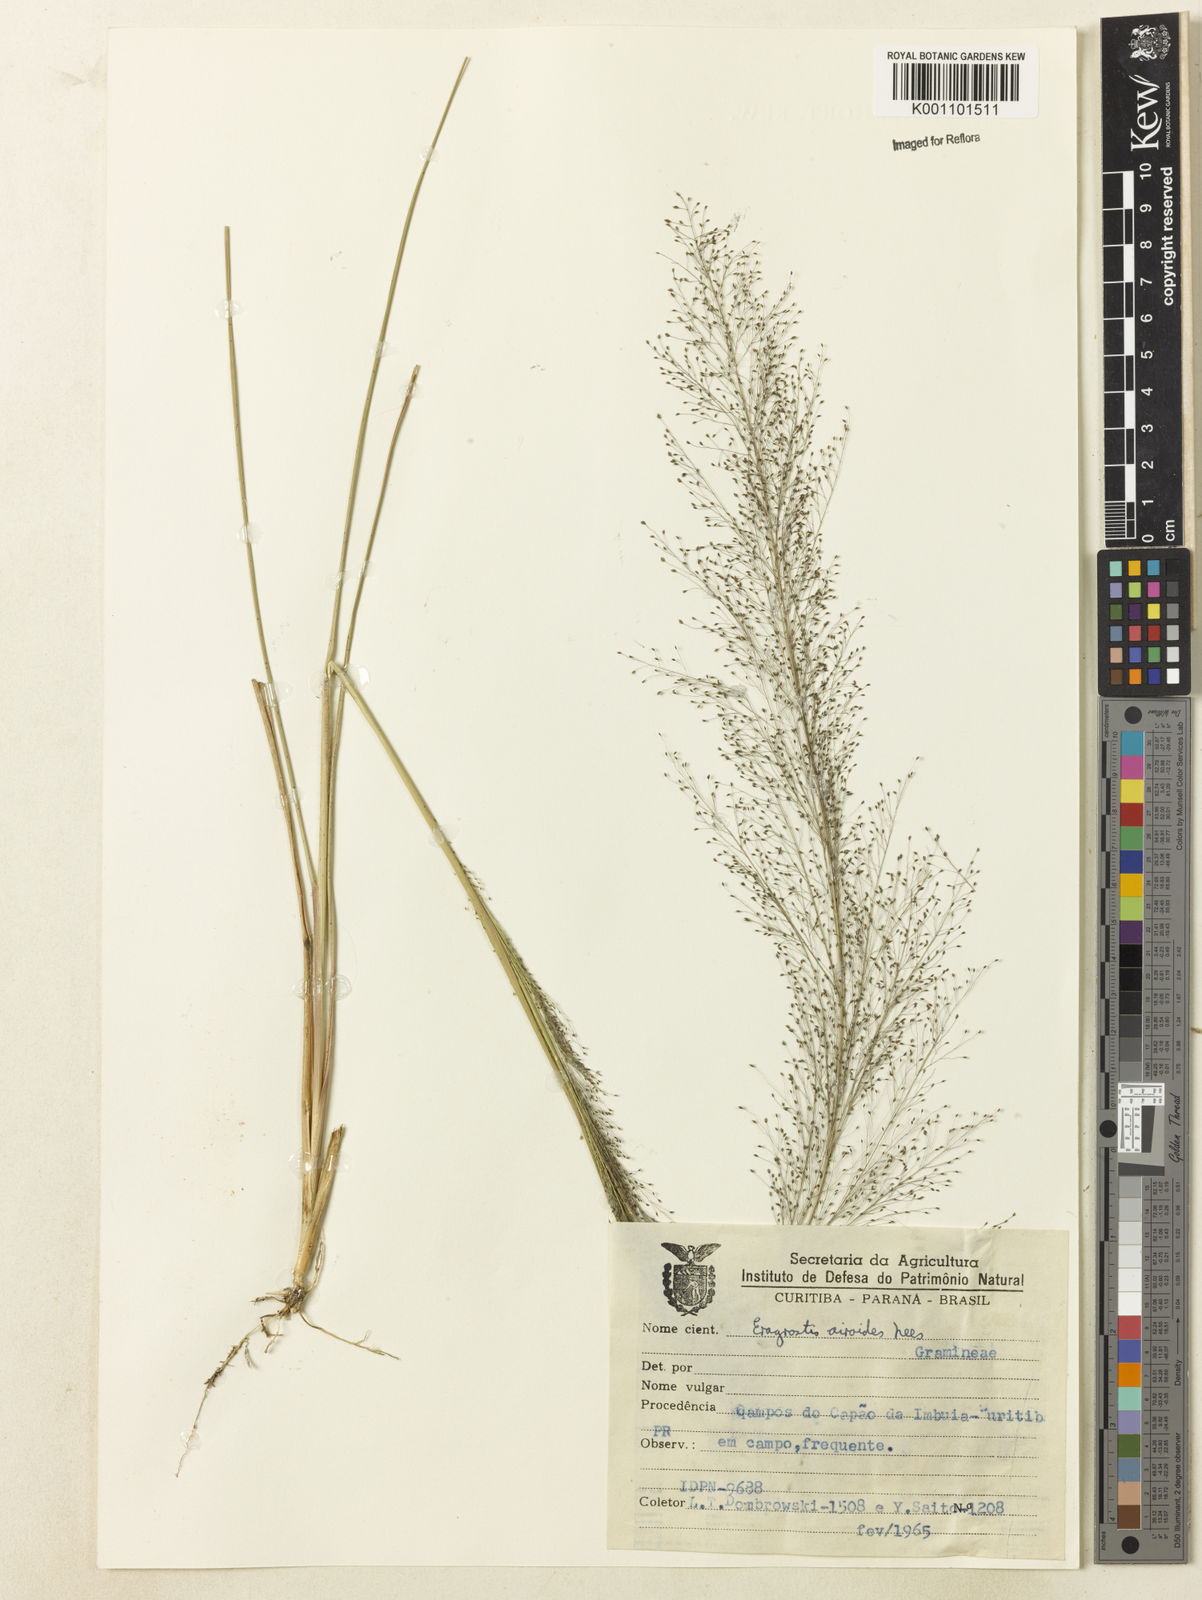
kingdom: Plantae
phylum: Tracheophyta
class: Liliopsida
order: Poales
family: Poaceae
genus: Eragrostis
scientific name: Eragrostis airoides
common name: Darnel lovegrass
